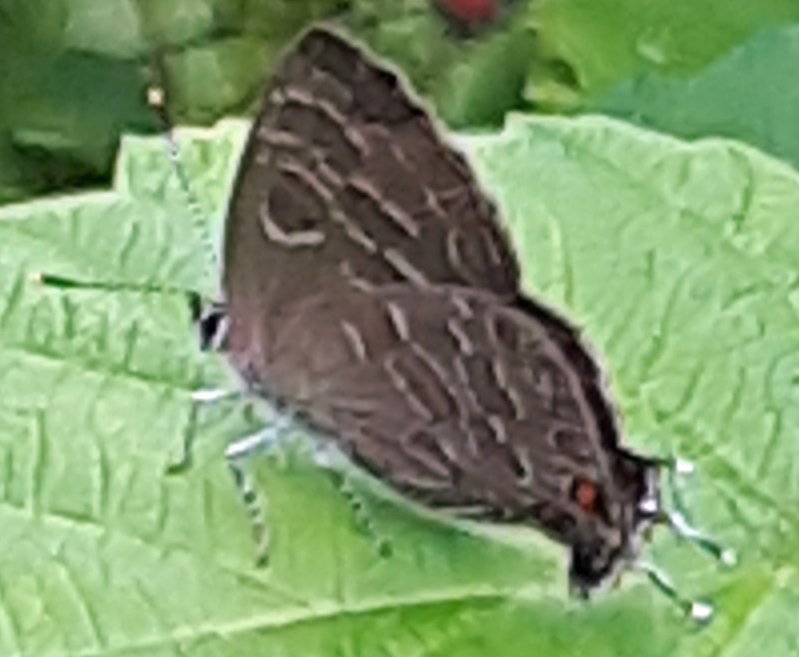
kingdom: Animalia
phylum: Arthropoda
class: Insecta
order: Lepidoptera
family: Lycaenidae
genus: Satyrium
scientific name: Satyrium liparops
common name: Striped Hairstreak
